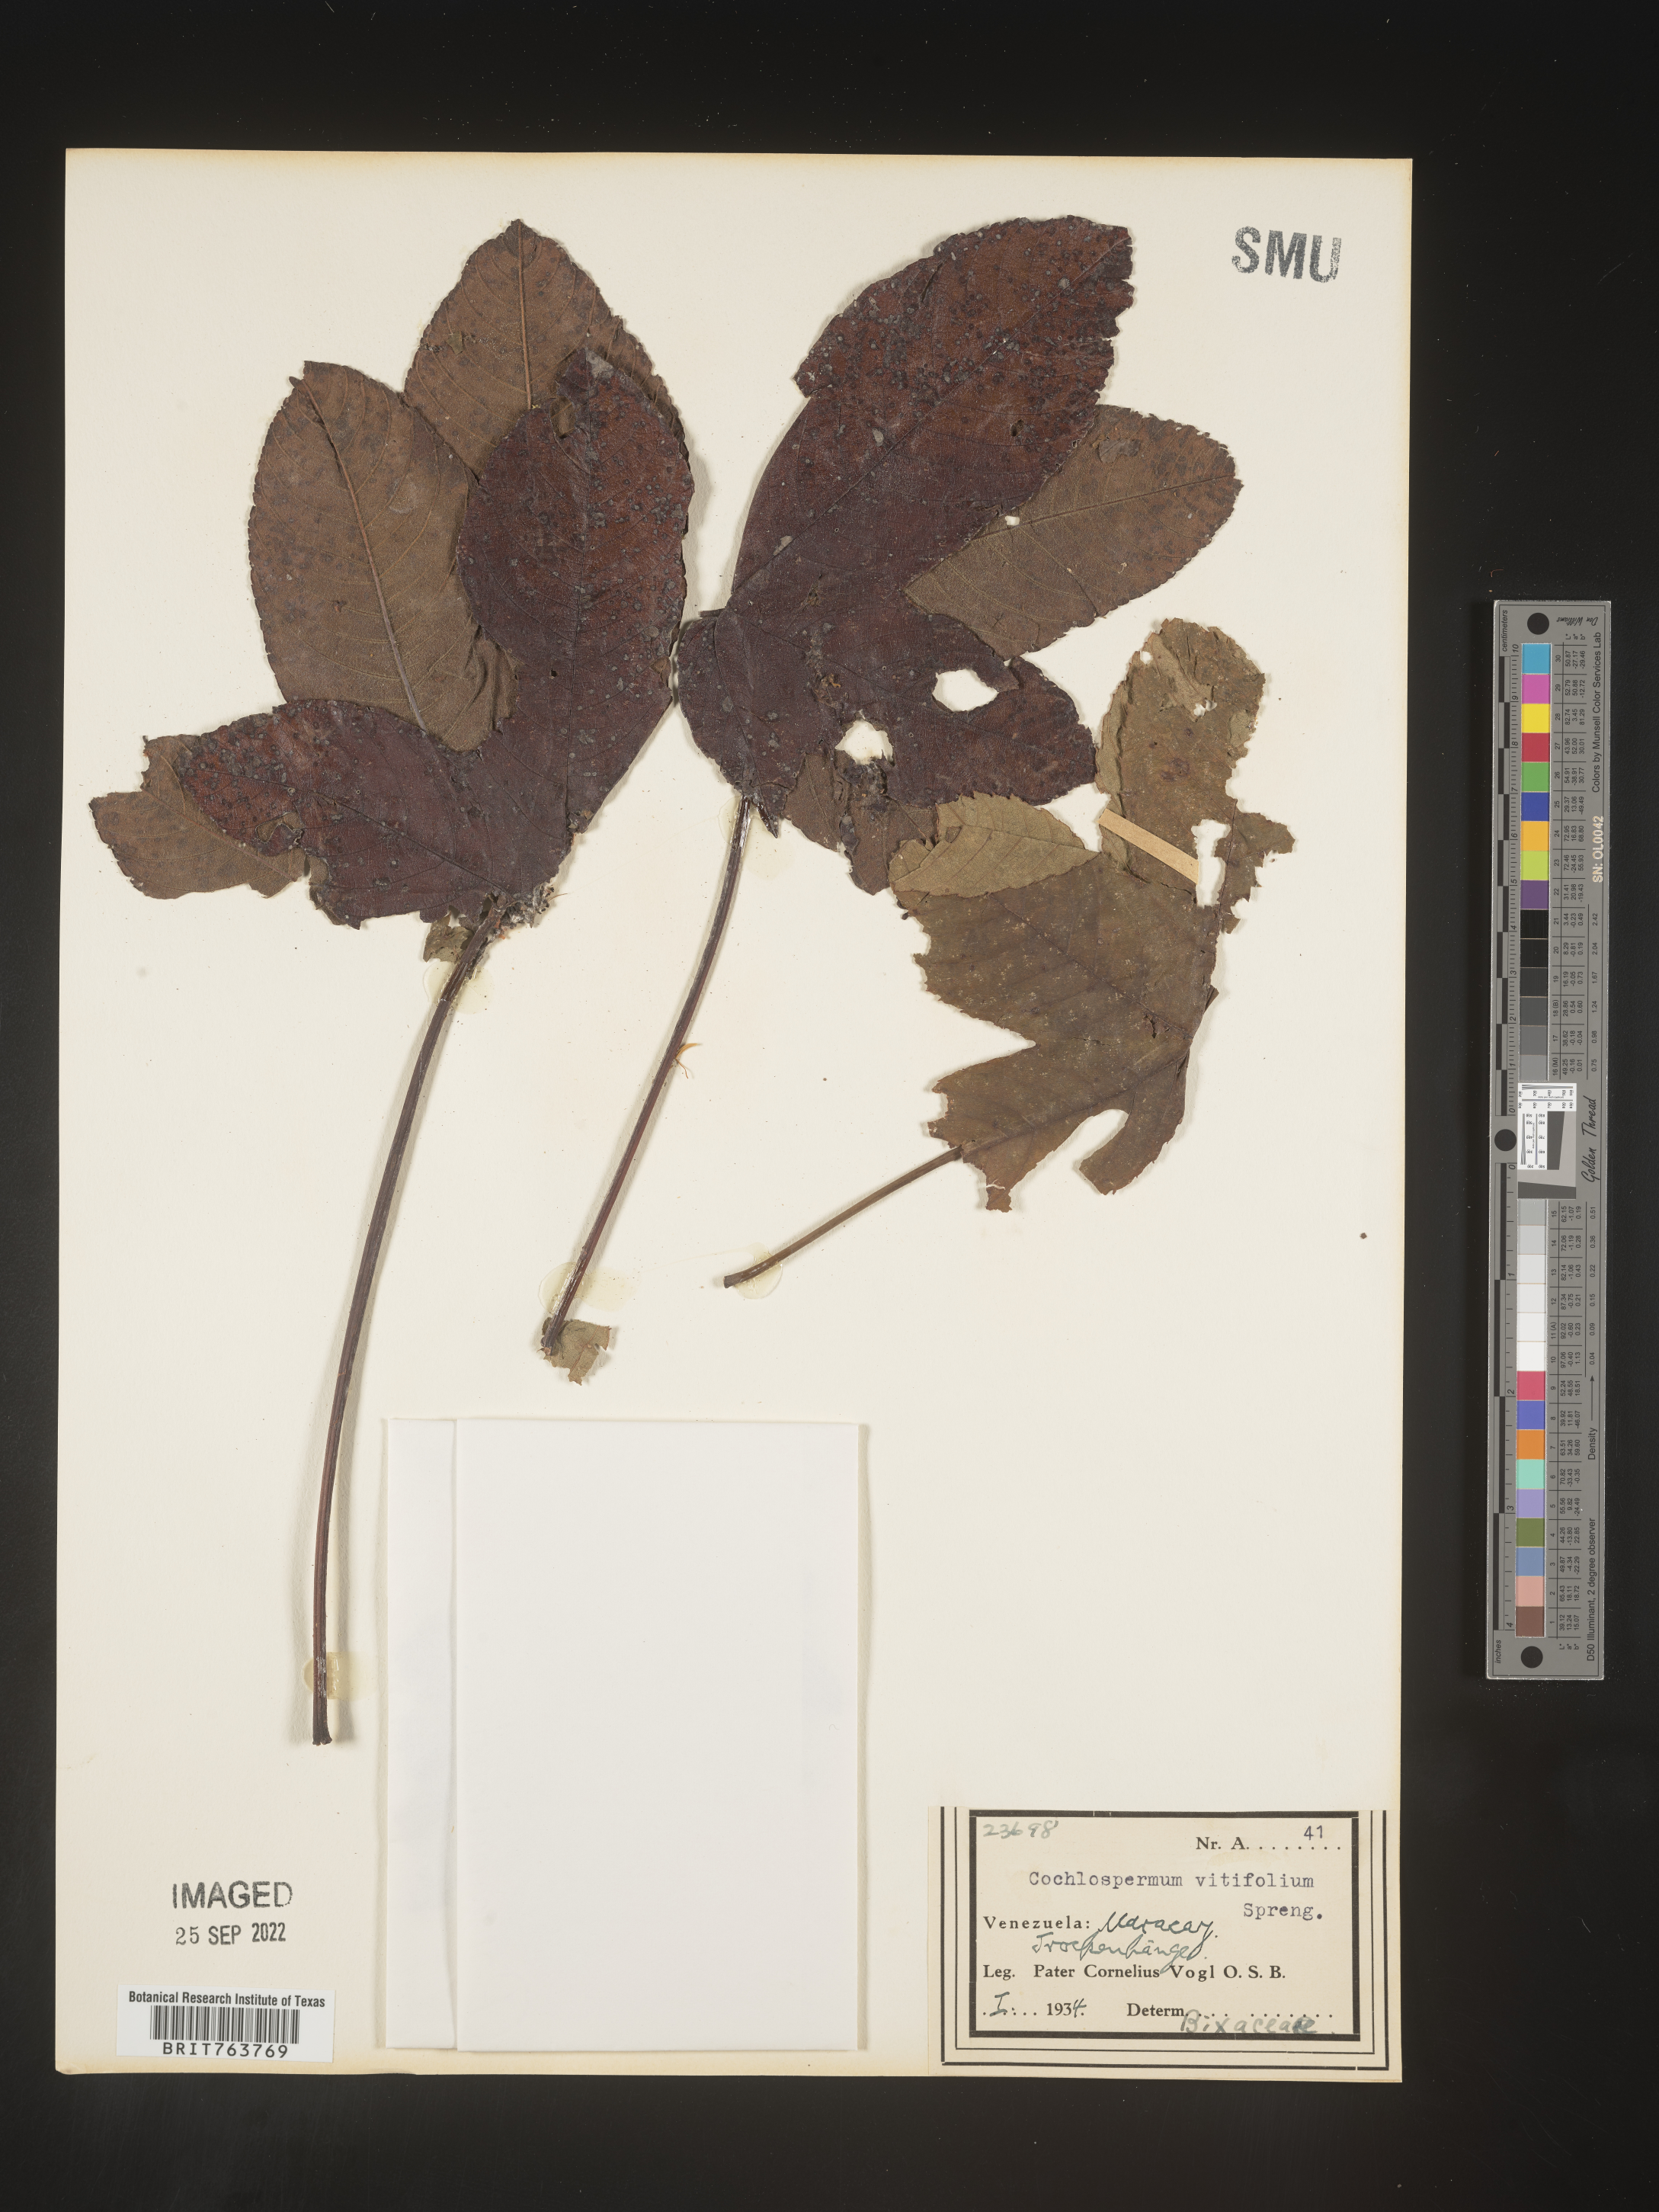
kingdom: Plantae
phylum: Tracheophyta
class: Magnoliopsida
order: Malvales
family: Cochlospermaceae
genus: Cochlospermum
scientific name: Cochlospermum
